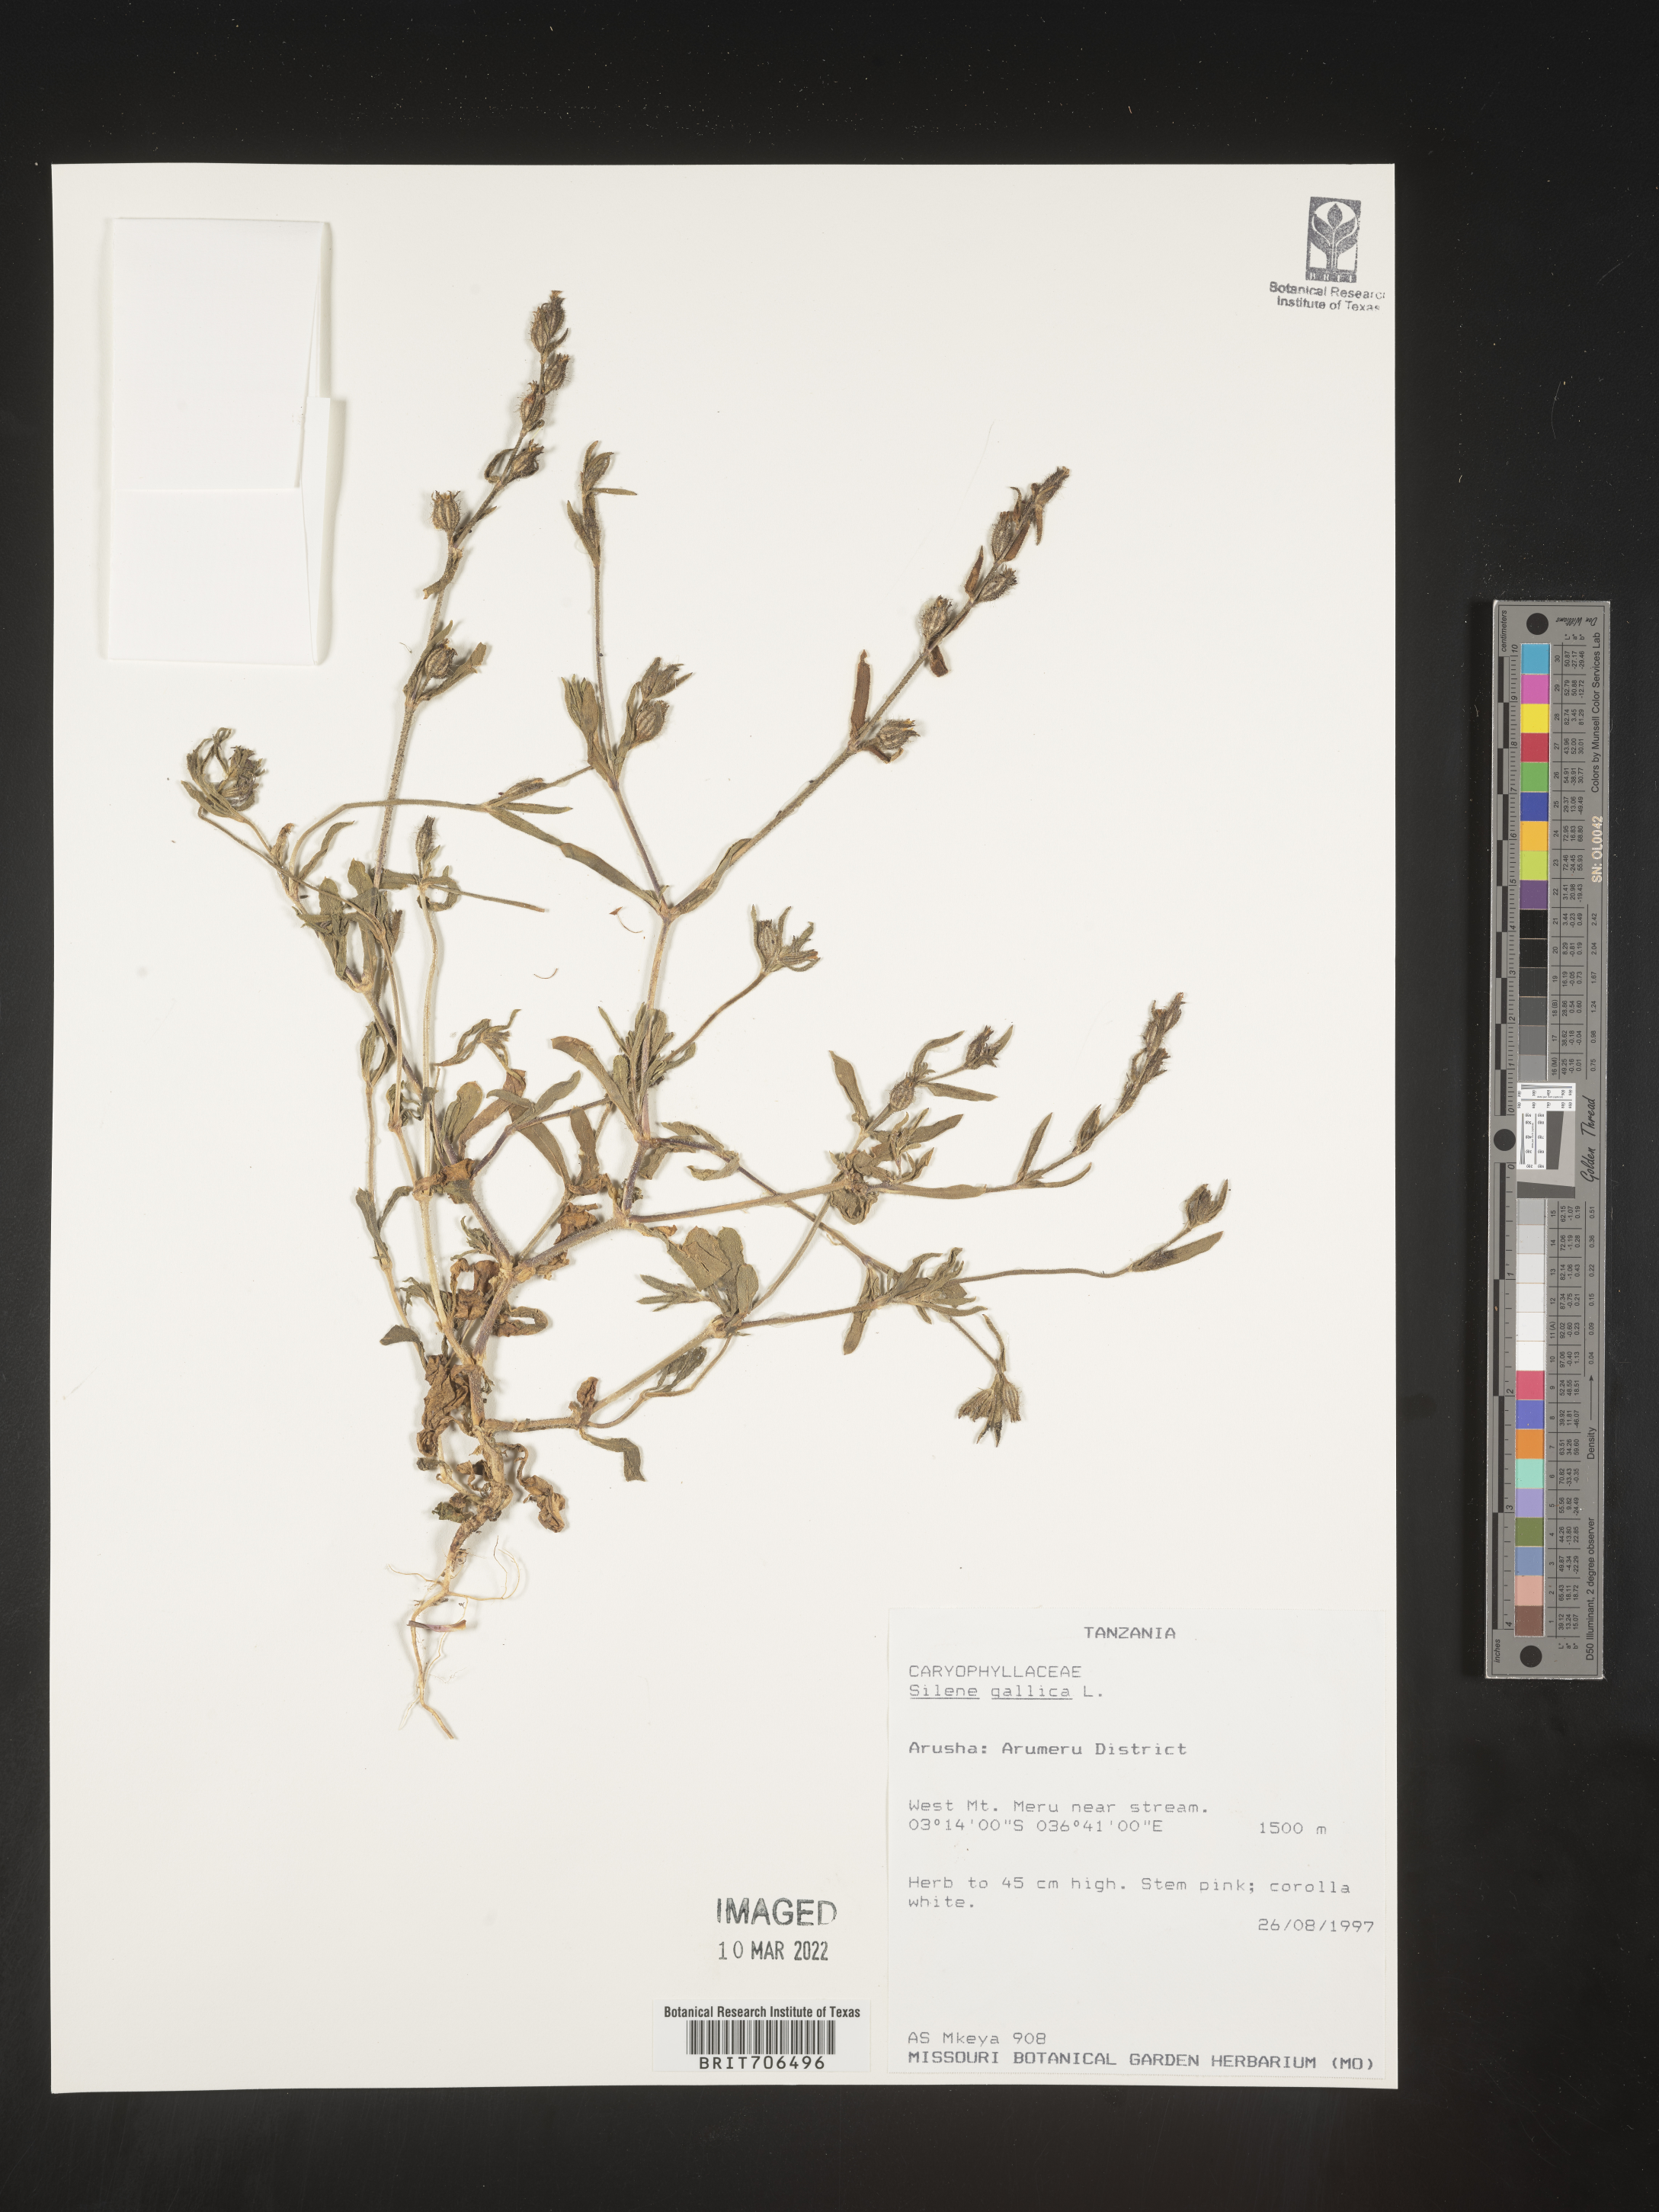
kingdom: Plantae
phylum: Tracheophyta
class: Magnoliopsida
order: Caryophyllales
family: Caryophyllaceae
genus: Silene
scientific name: Silene
